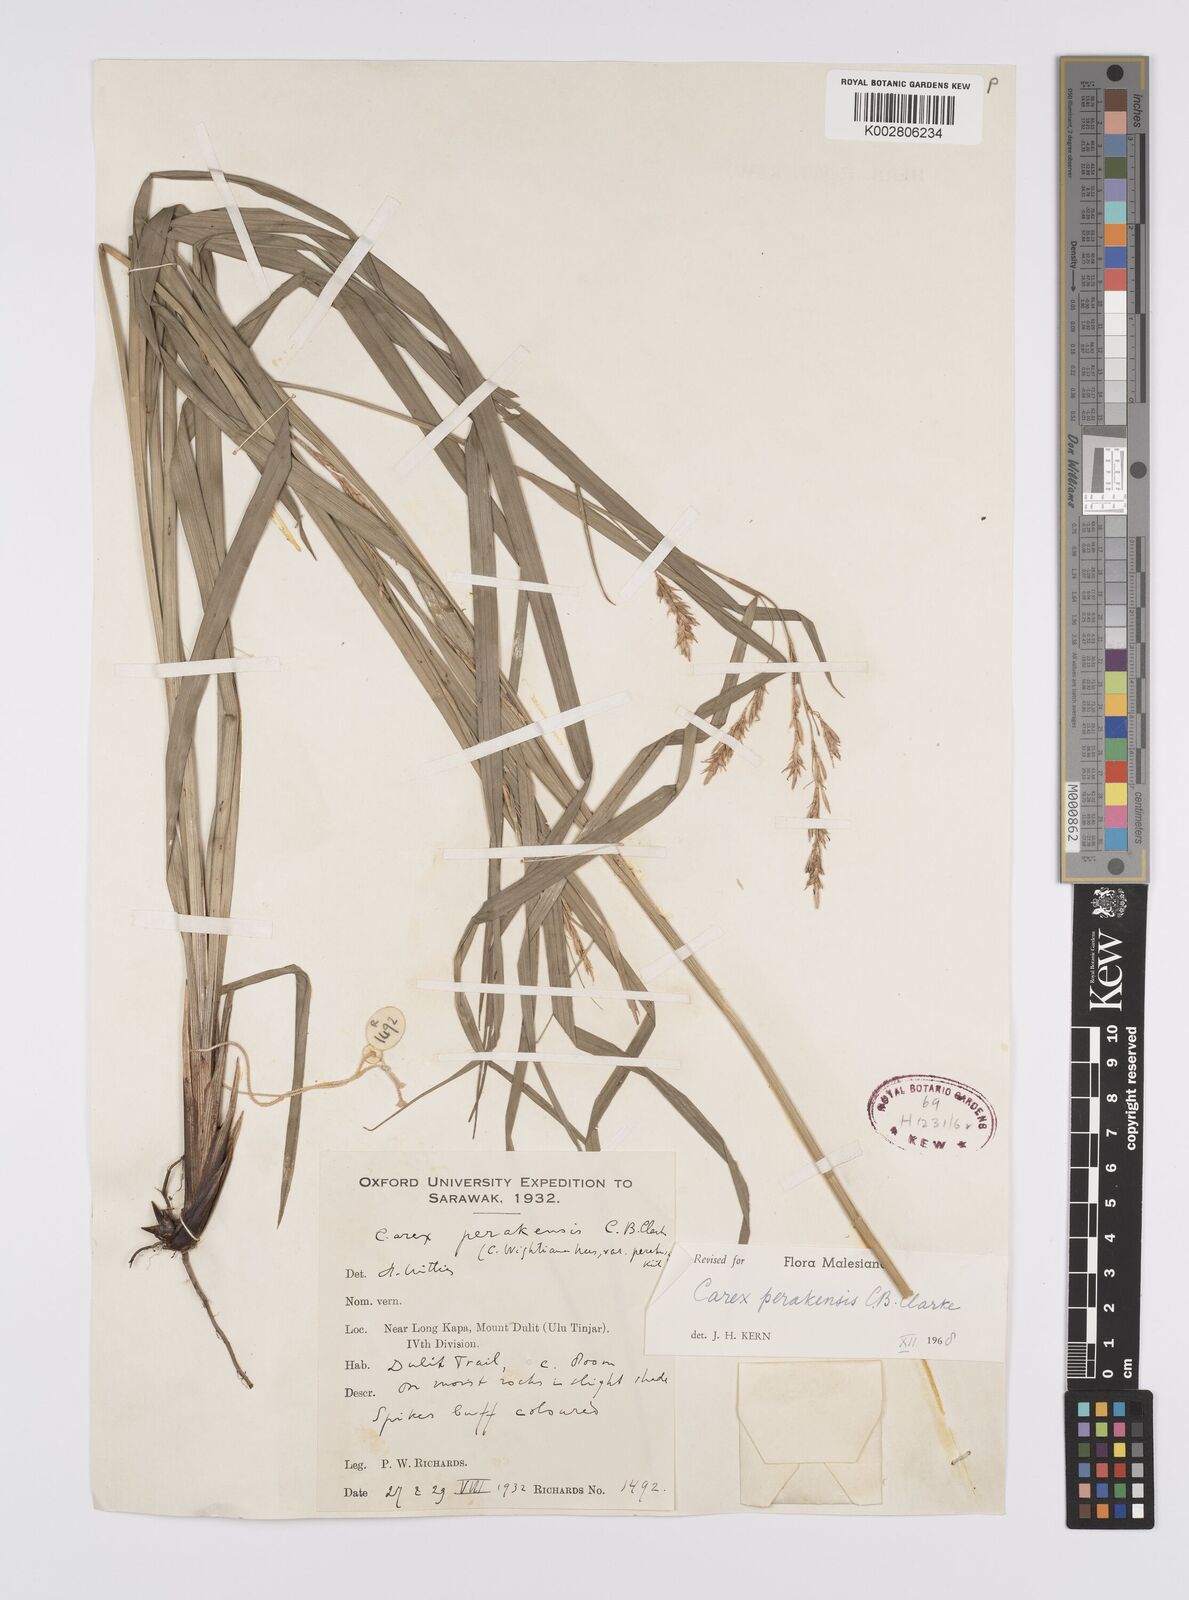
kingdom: Plantae
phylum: Tracheophyta
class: Liliopsida
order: Poales
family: Cyperaceae
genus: Carex
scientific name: Carex perakensis
